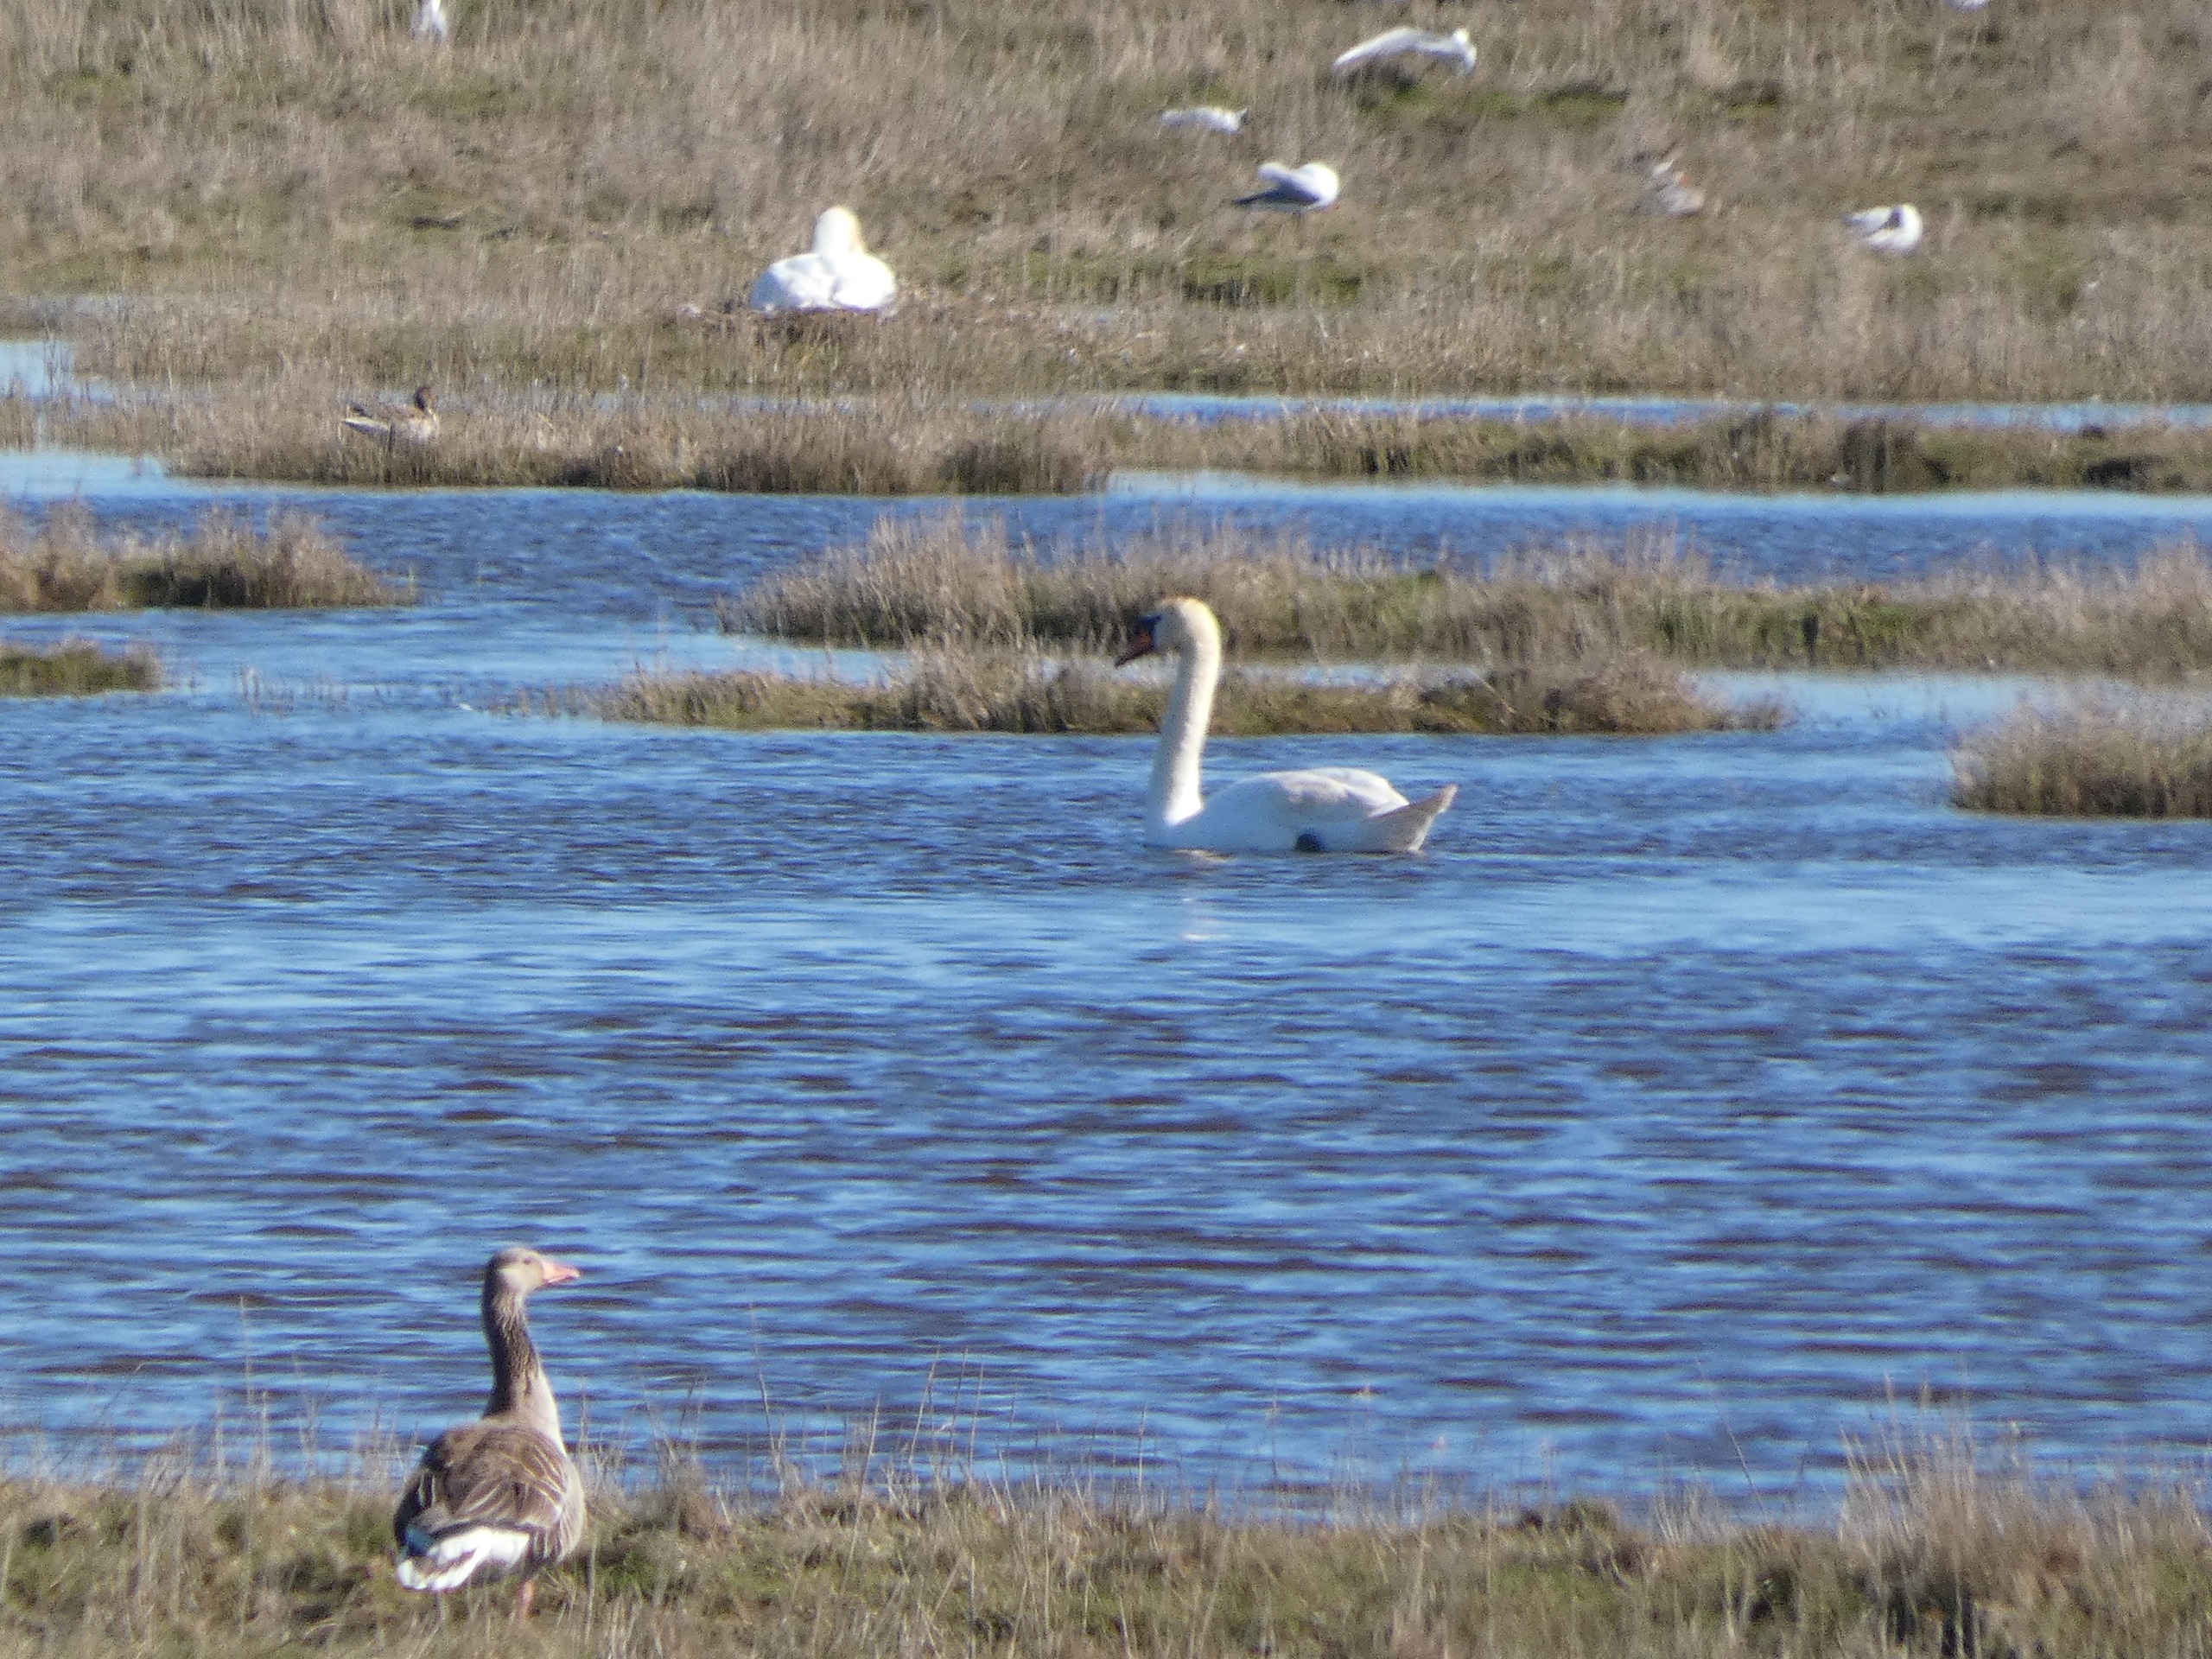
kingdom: Animalia
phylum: Chordata
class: Aves
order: Anseriformes
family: Anatidae
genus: Cygnus
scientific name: Cygnus olor
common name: Knopsvane
